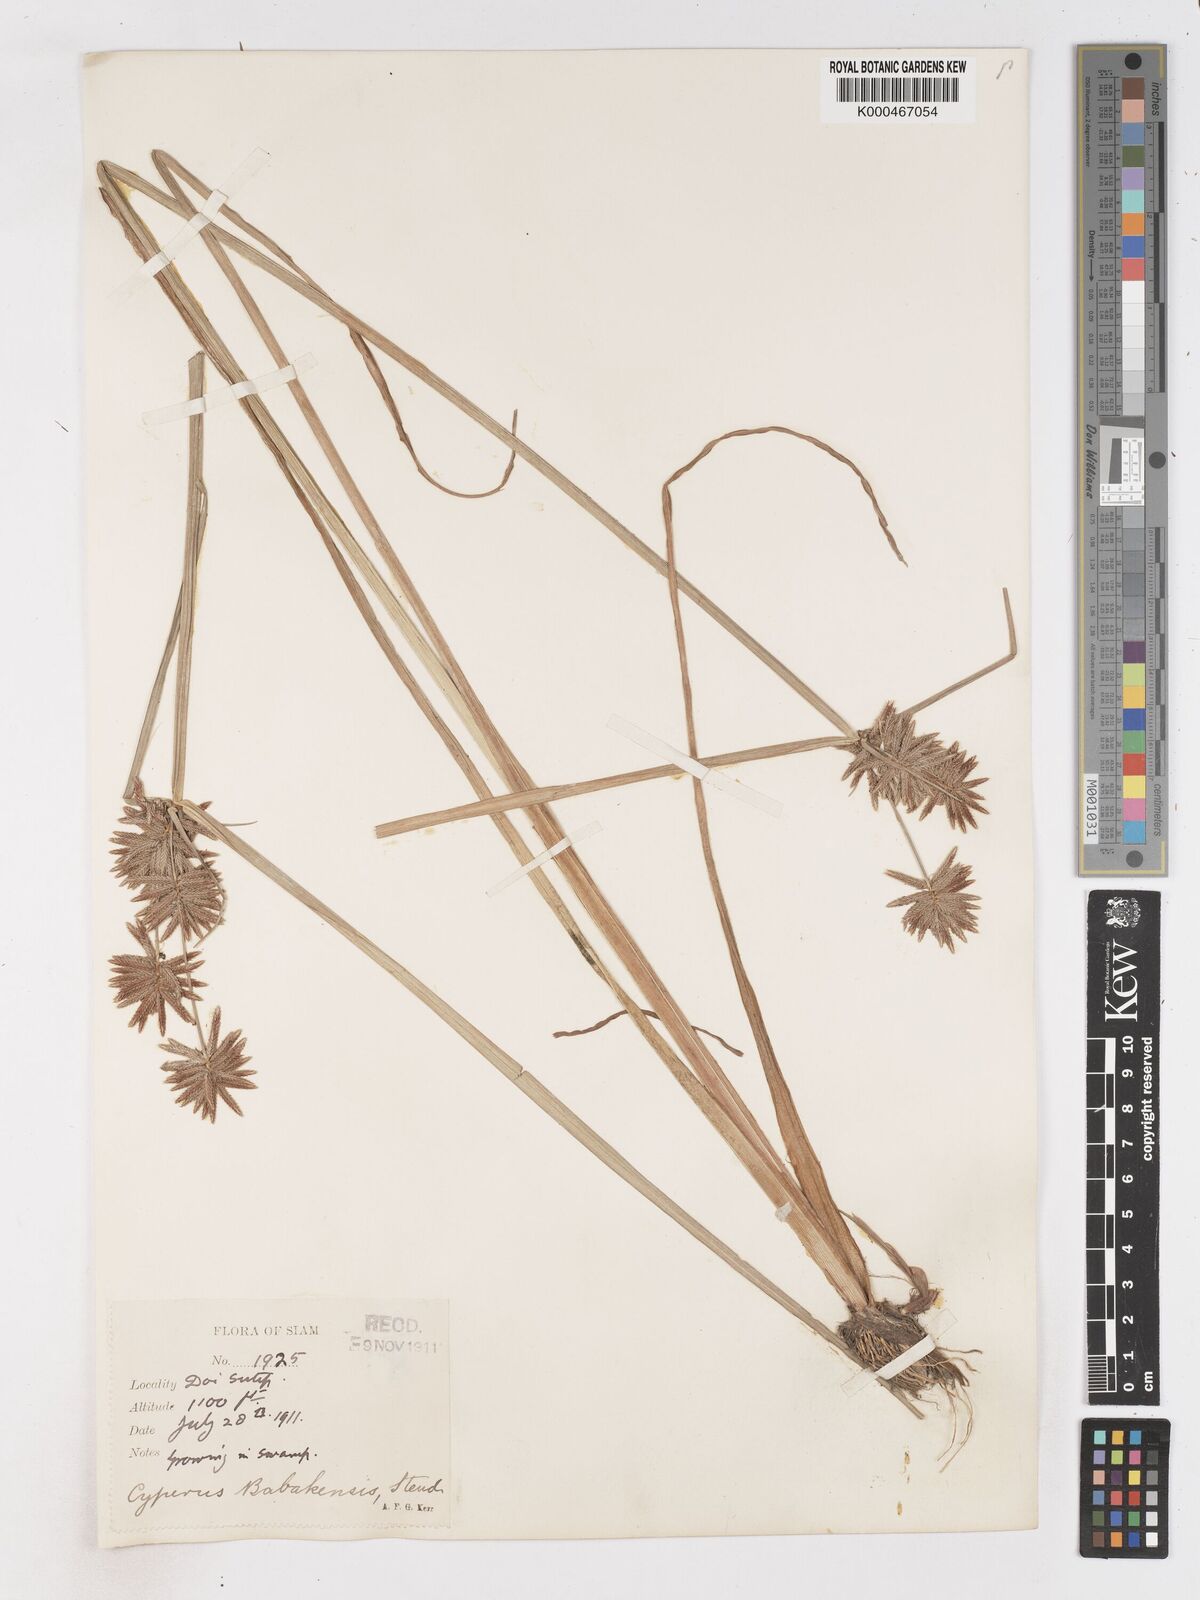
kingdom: Plantae
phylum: Tracheophyta
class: Liliopsida
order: Poales
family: Cyperaceae
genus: Cyperus
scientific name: Cyperus babakan
